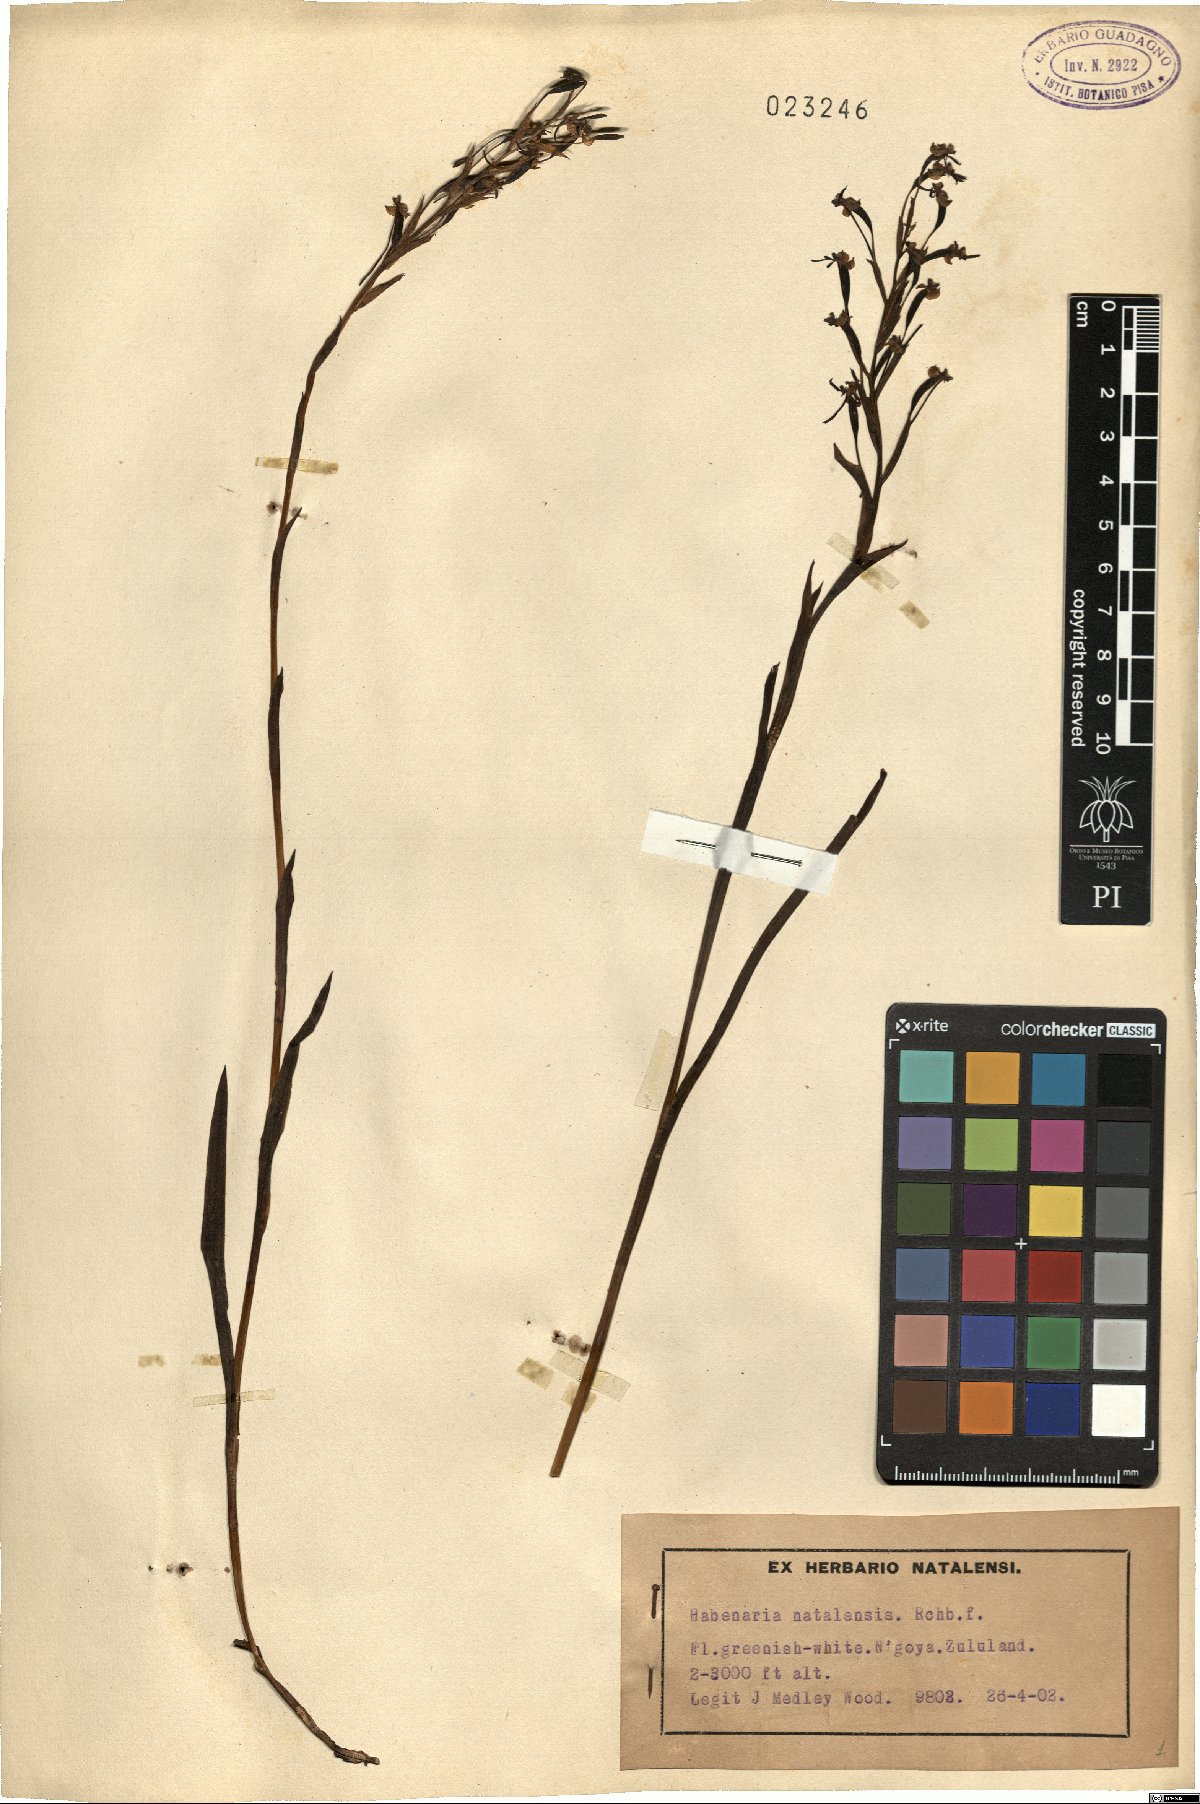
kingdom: Plantae
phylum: Tracheophyta
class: Liliopsida
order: Asparagales
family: Orchidaceae
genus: Habenaria
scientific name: Habenaria filicornis
